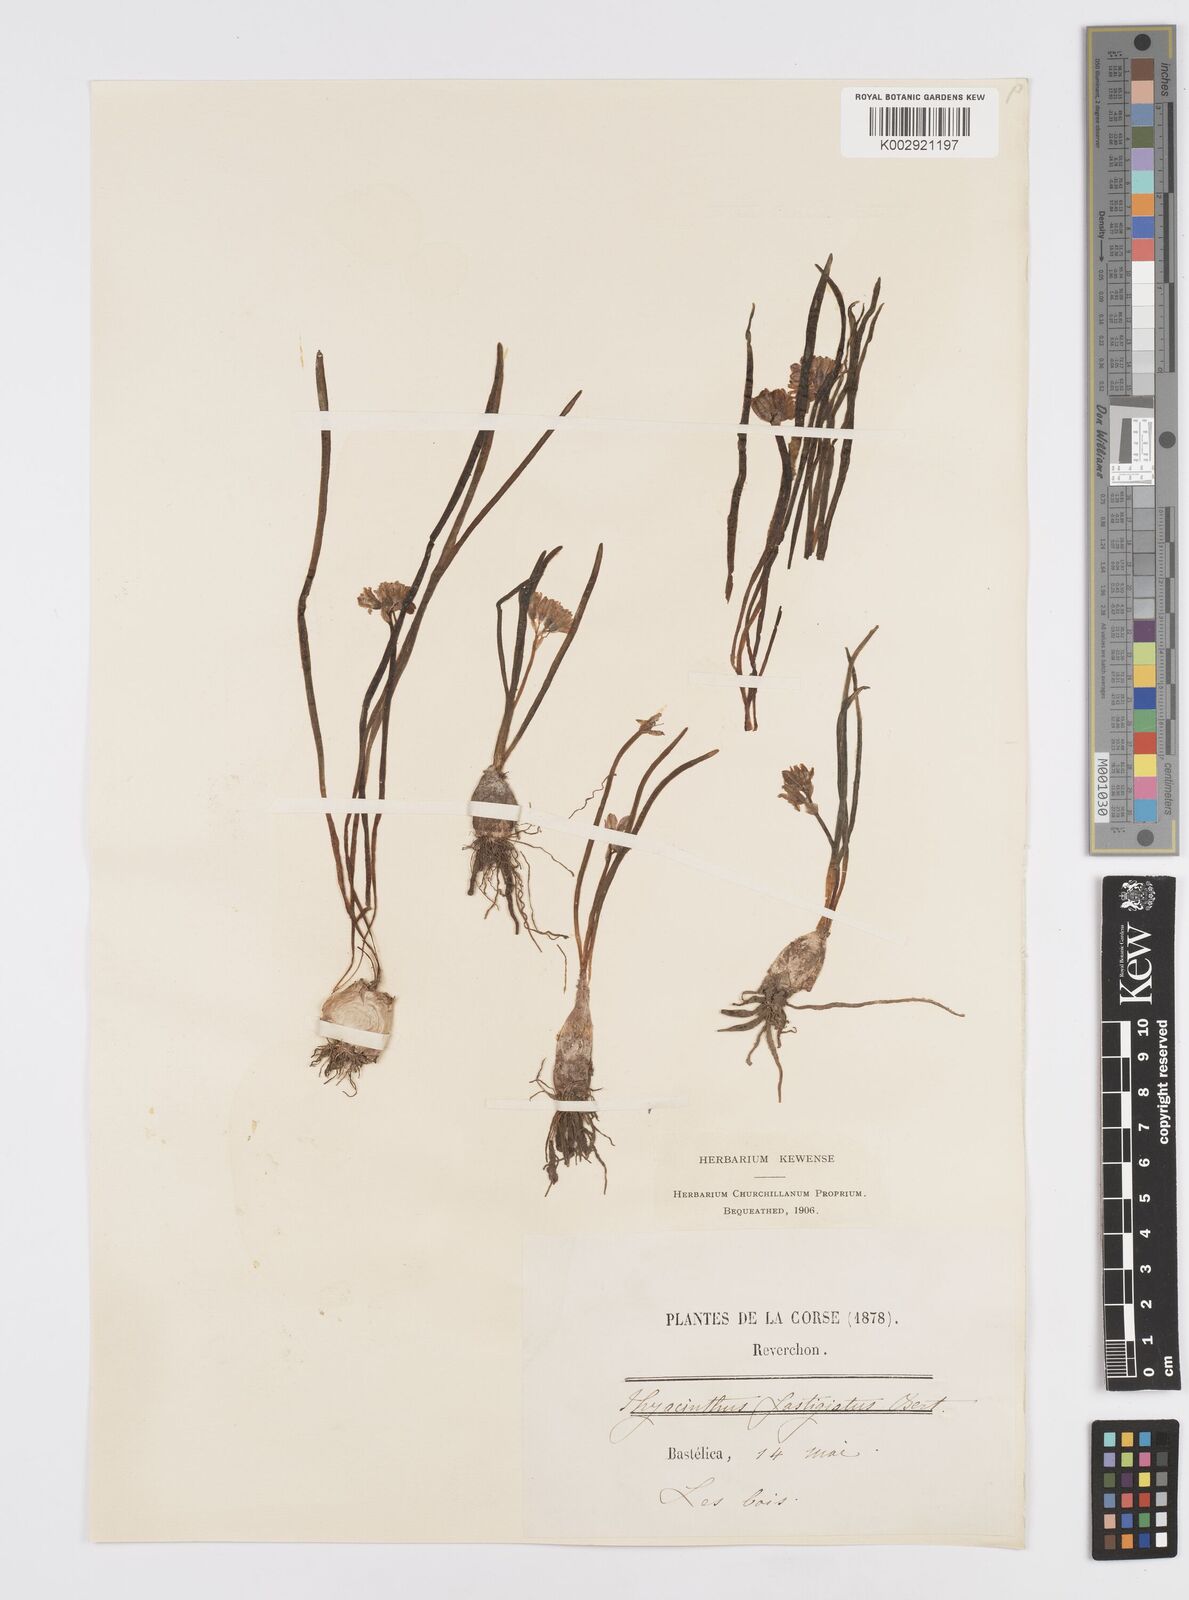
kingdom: Plantae
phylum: Tracheophyta
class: Liliopsida
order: Asparagales
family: Asparagaceae
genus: Brimeura
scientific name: Brimeura fastigiata
